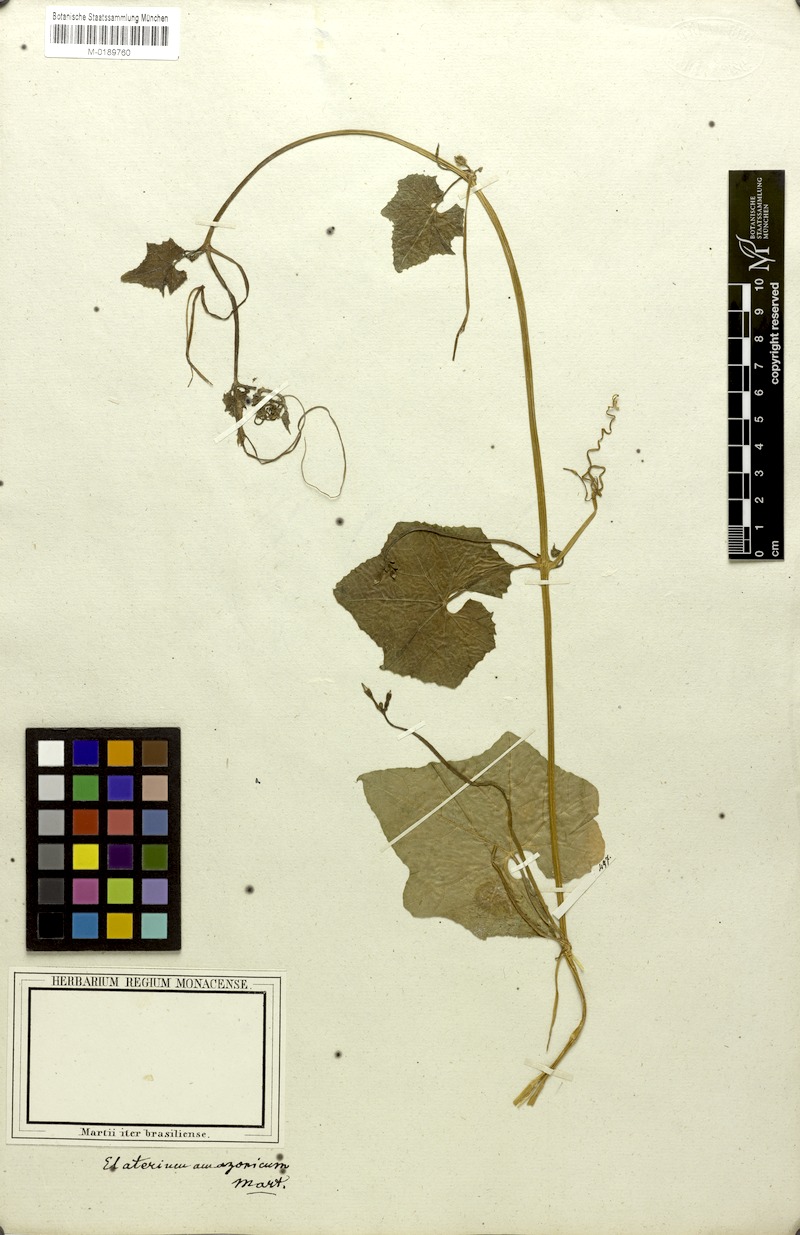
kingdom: Plantae
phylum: Tracheophyta
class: Magnoliopsida
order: Cucurbitales
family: Cucurbitaceae
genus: Cyclanthera
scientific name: Cyclanthera carthagenensis
